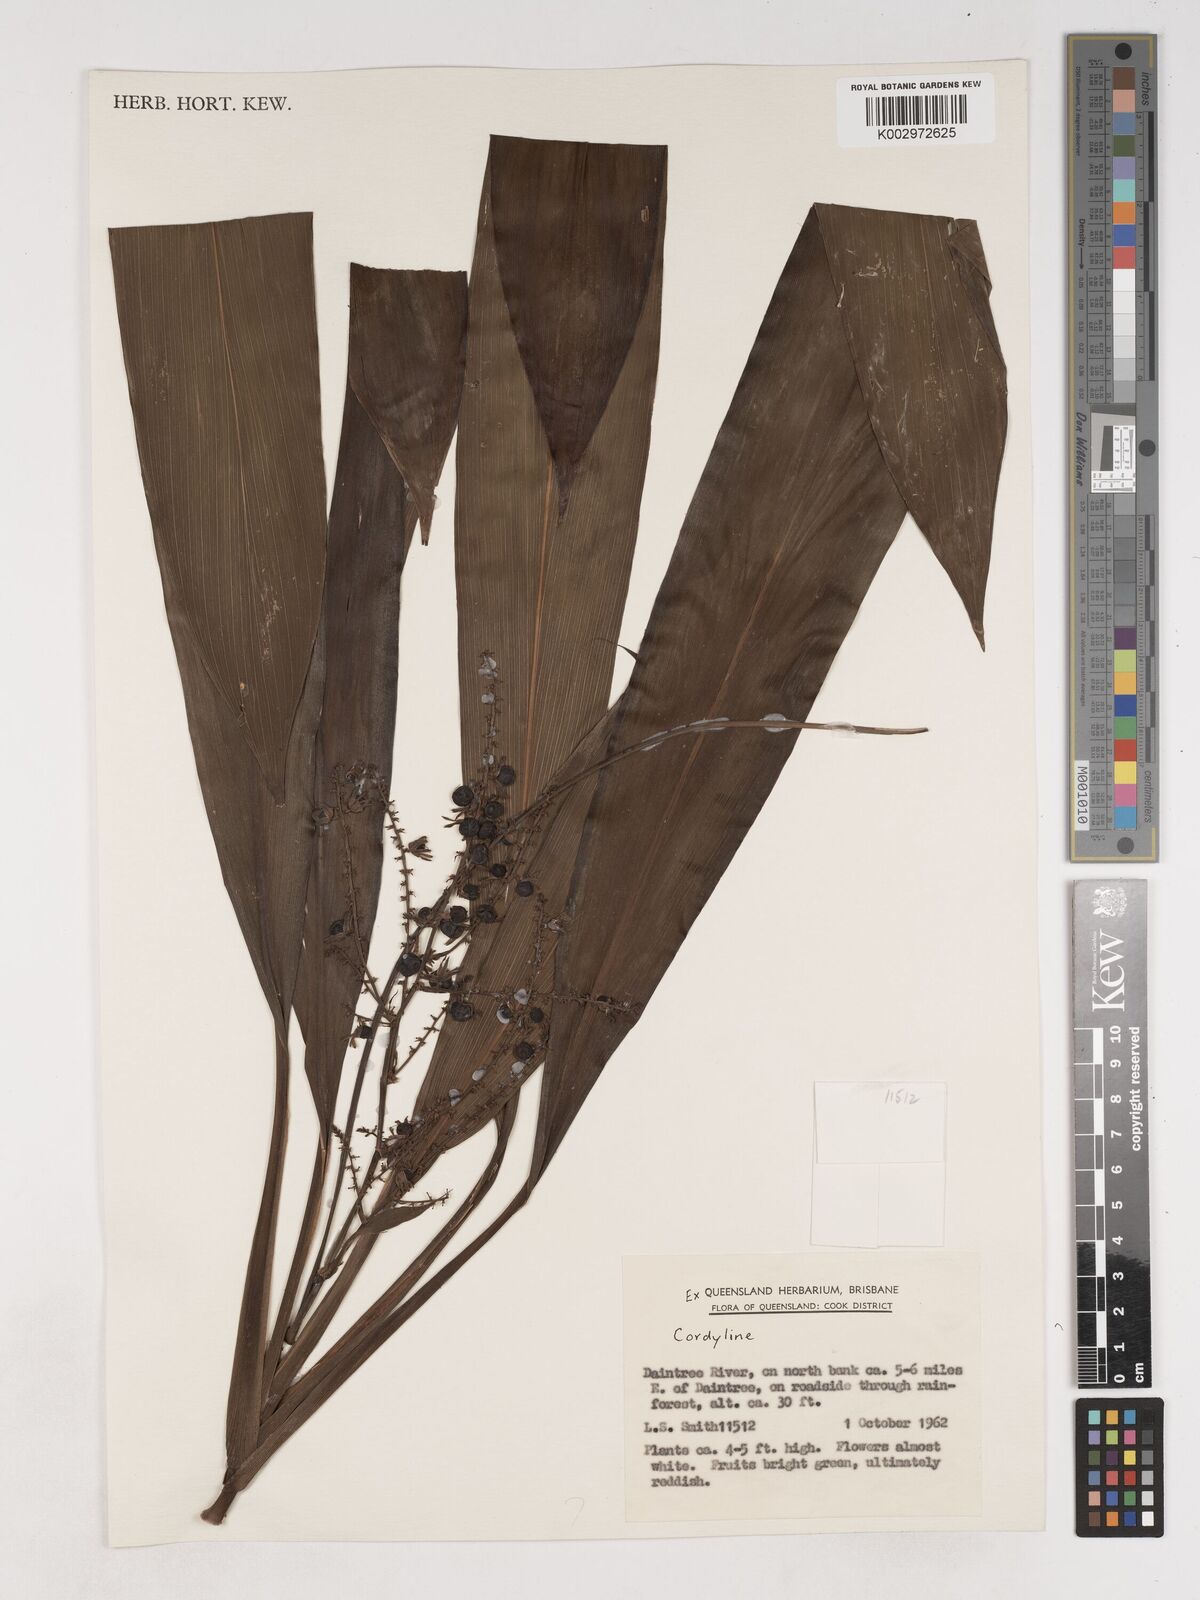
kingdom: Plantae
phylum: Tracheophyta
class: Liliopsida
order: Asparagales
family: Asparagaceae
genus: Cordyline
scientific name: Cordyline rubra
